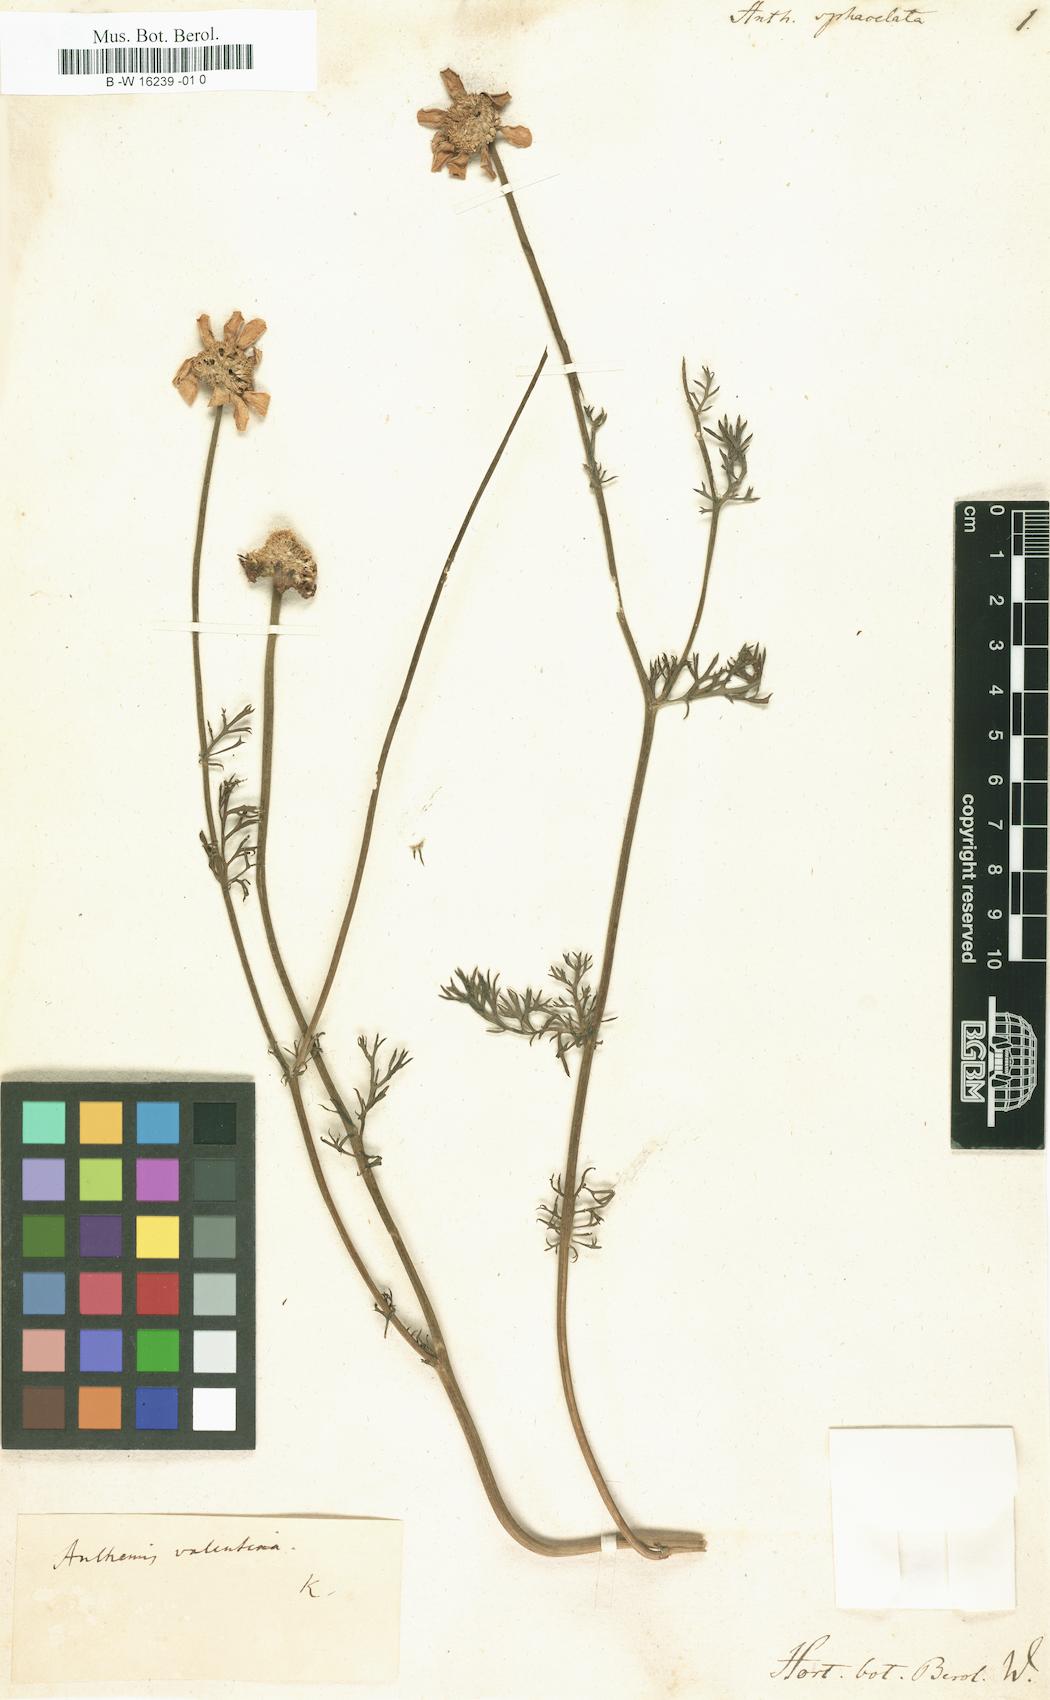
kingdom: Plantae
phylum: Tracheophyta
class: Magnoliopsida
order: Asterales
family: Asteraceae
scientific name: Asteraceae
